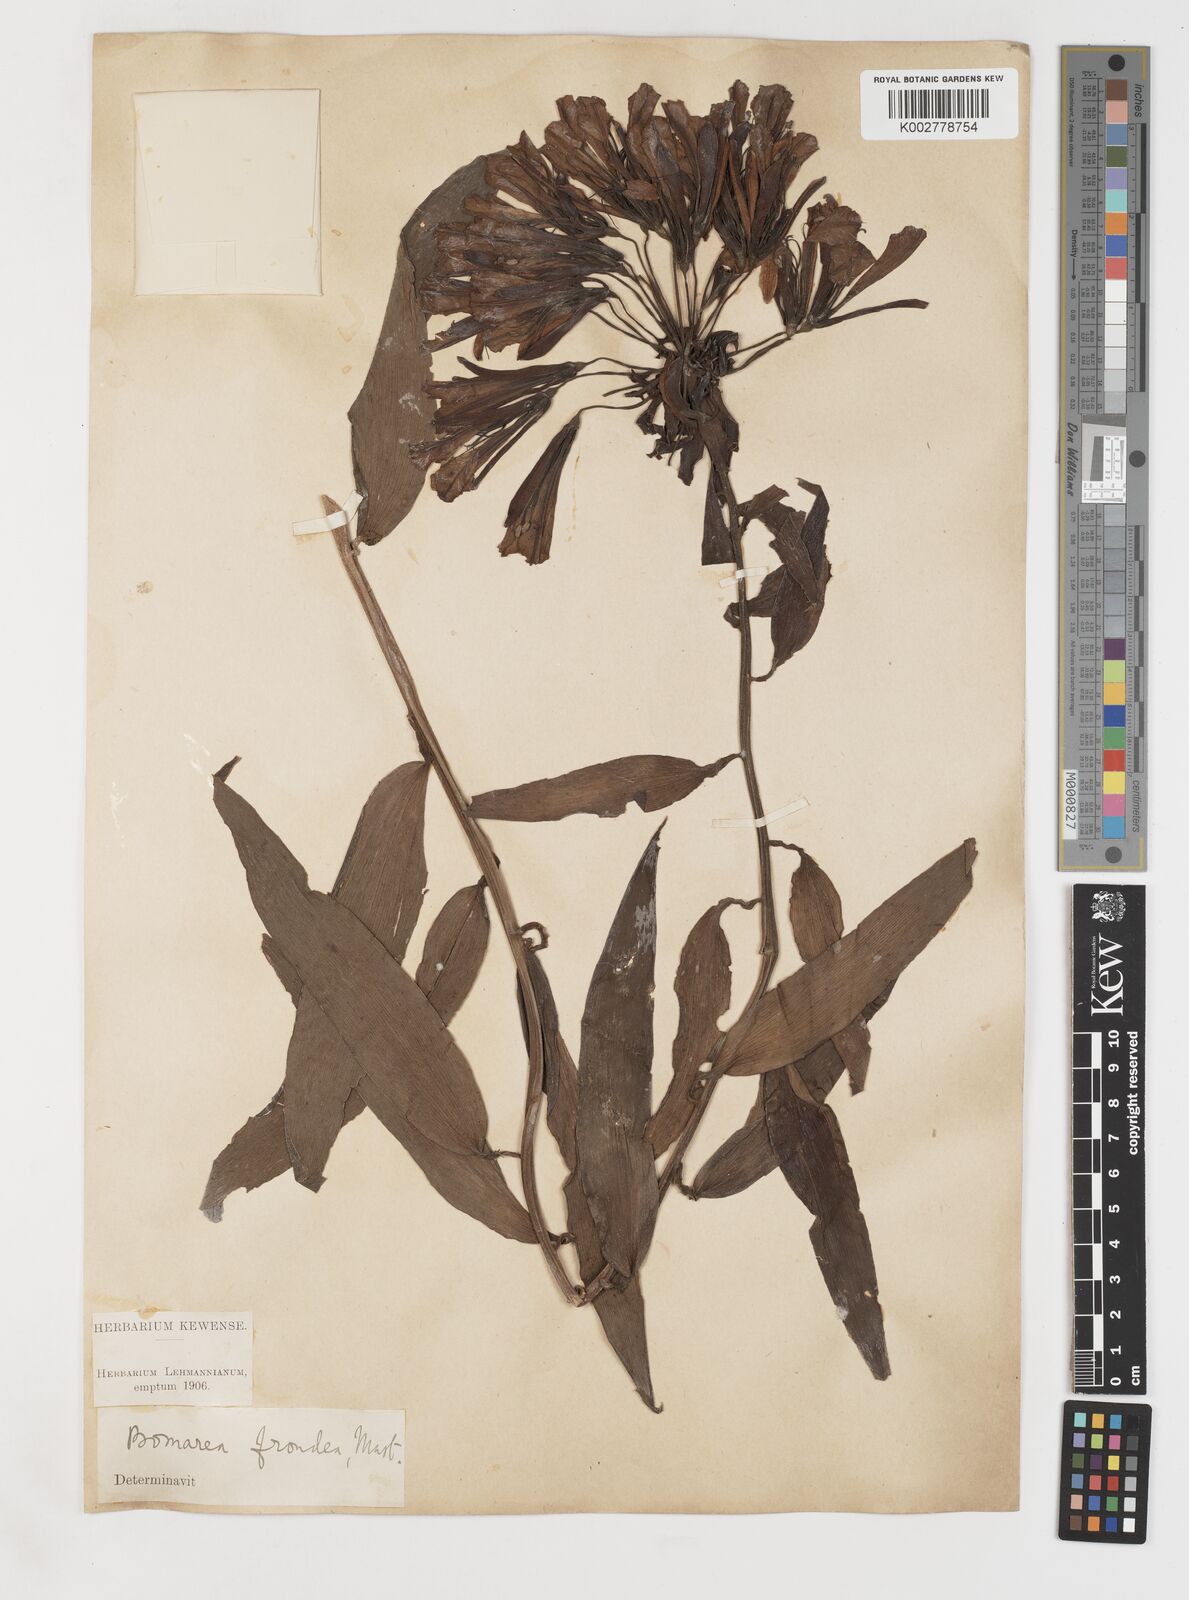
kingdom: Plantae
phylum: Tracheophyta
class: Liliopsida
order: Liliales
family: Alstroemeriaceae
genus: Bomarea
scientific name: Bomarea andreana
